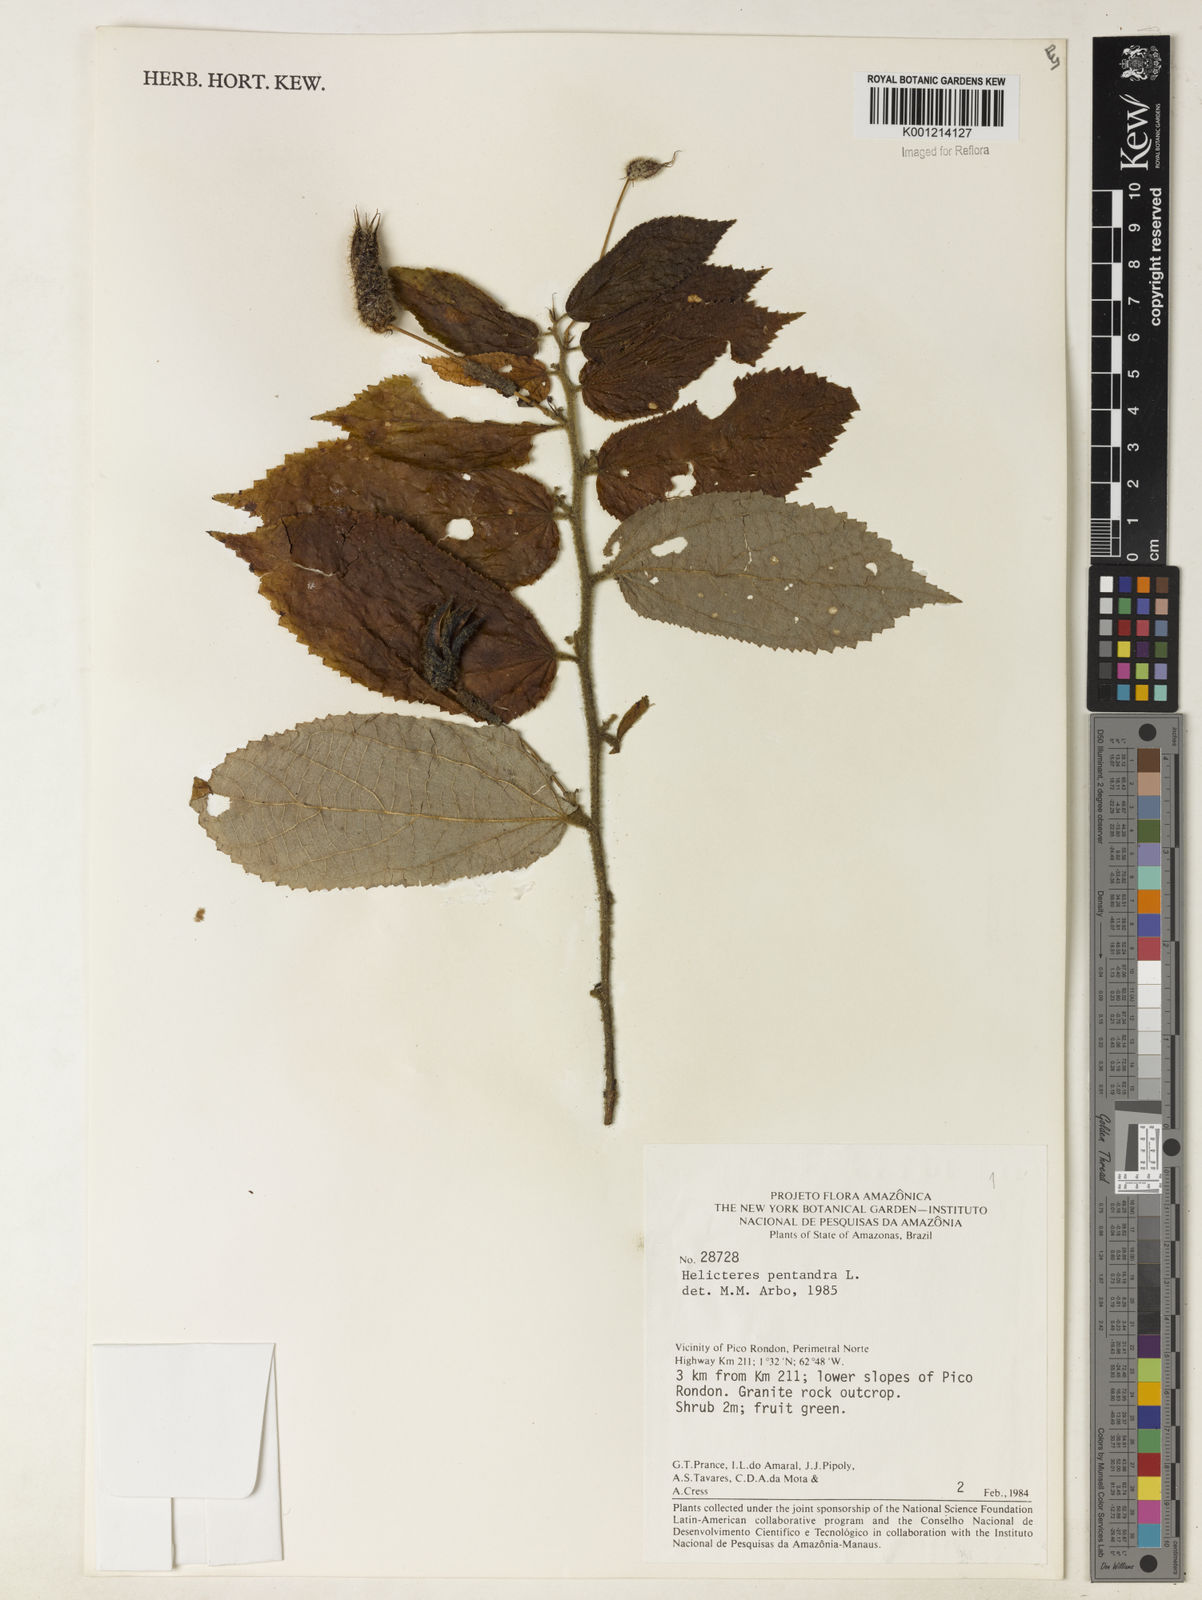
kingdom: Plantae
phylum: Tracheophyta
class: Magnoliopsida
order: Malvales
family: Malvaceae
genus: Helicteres
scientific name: Helicteres pentandra
